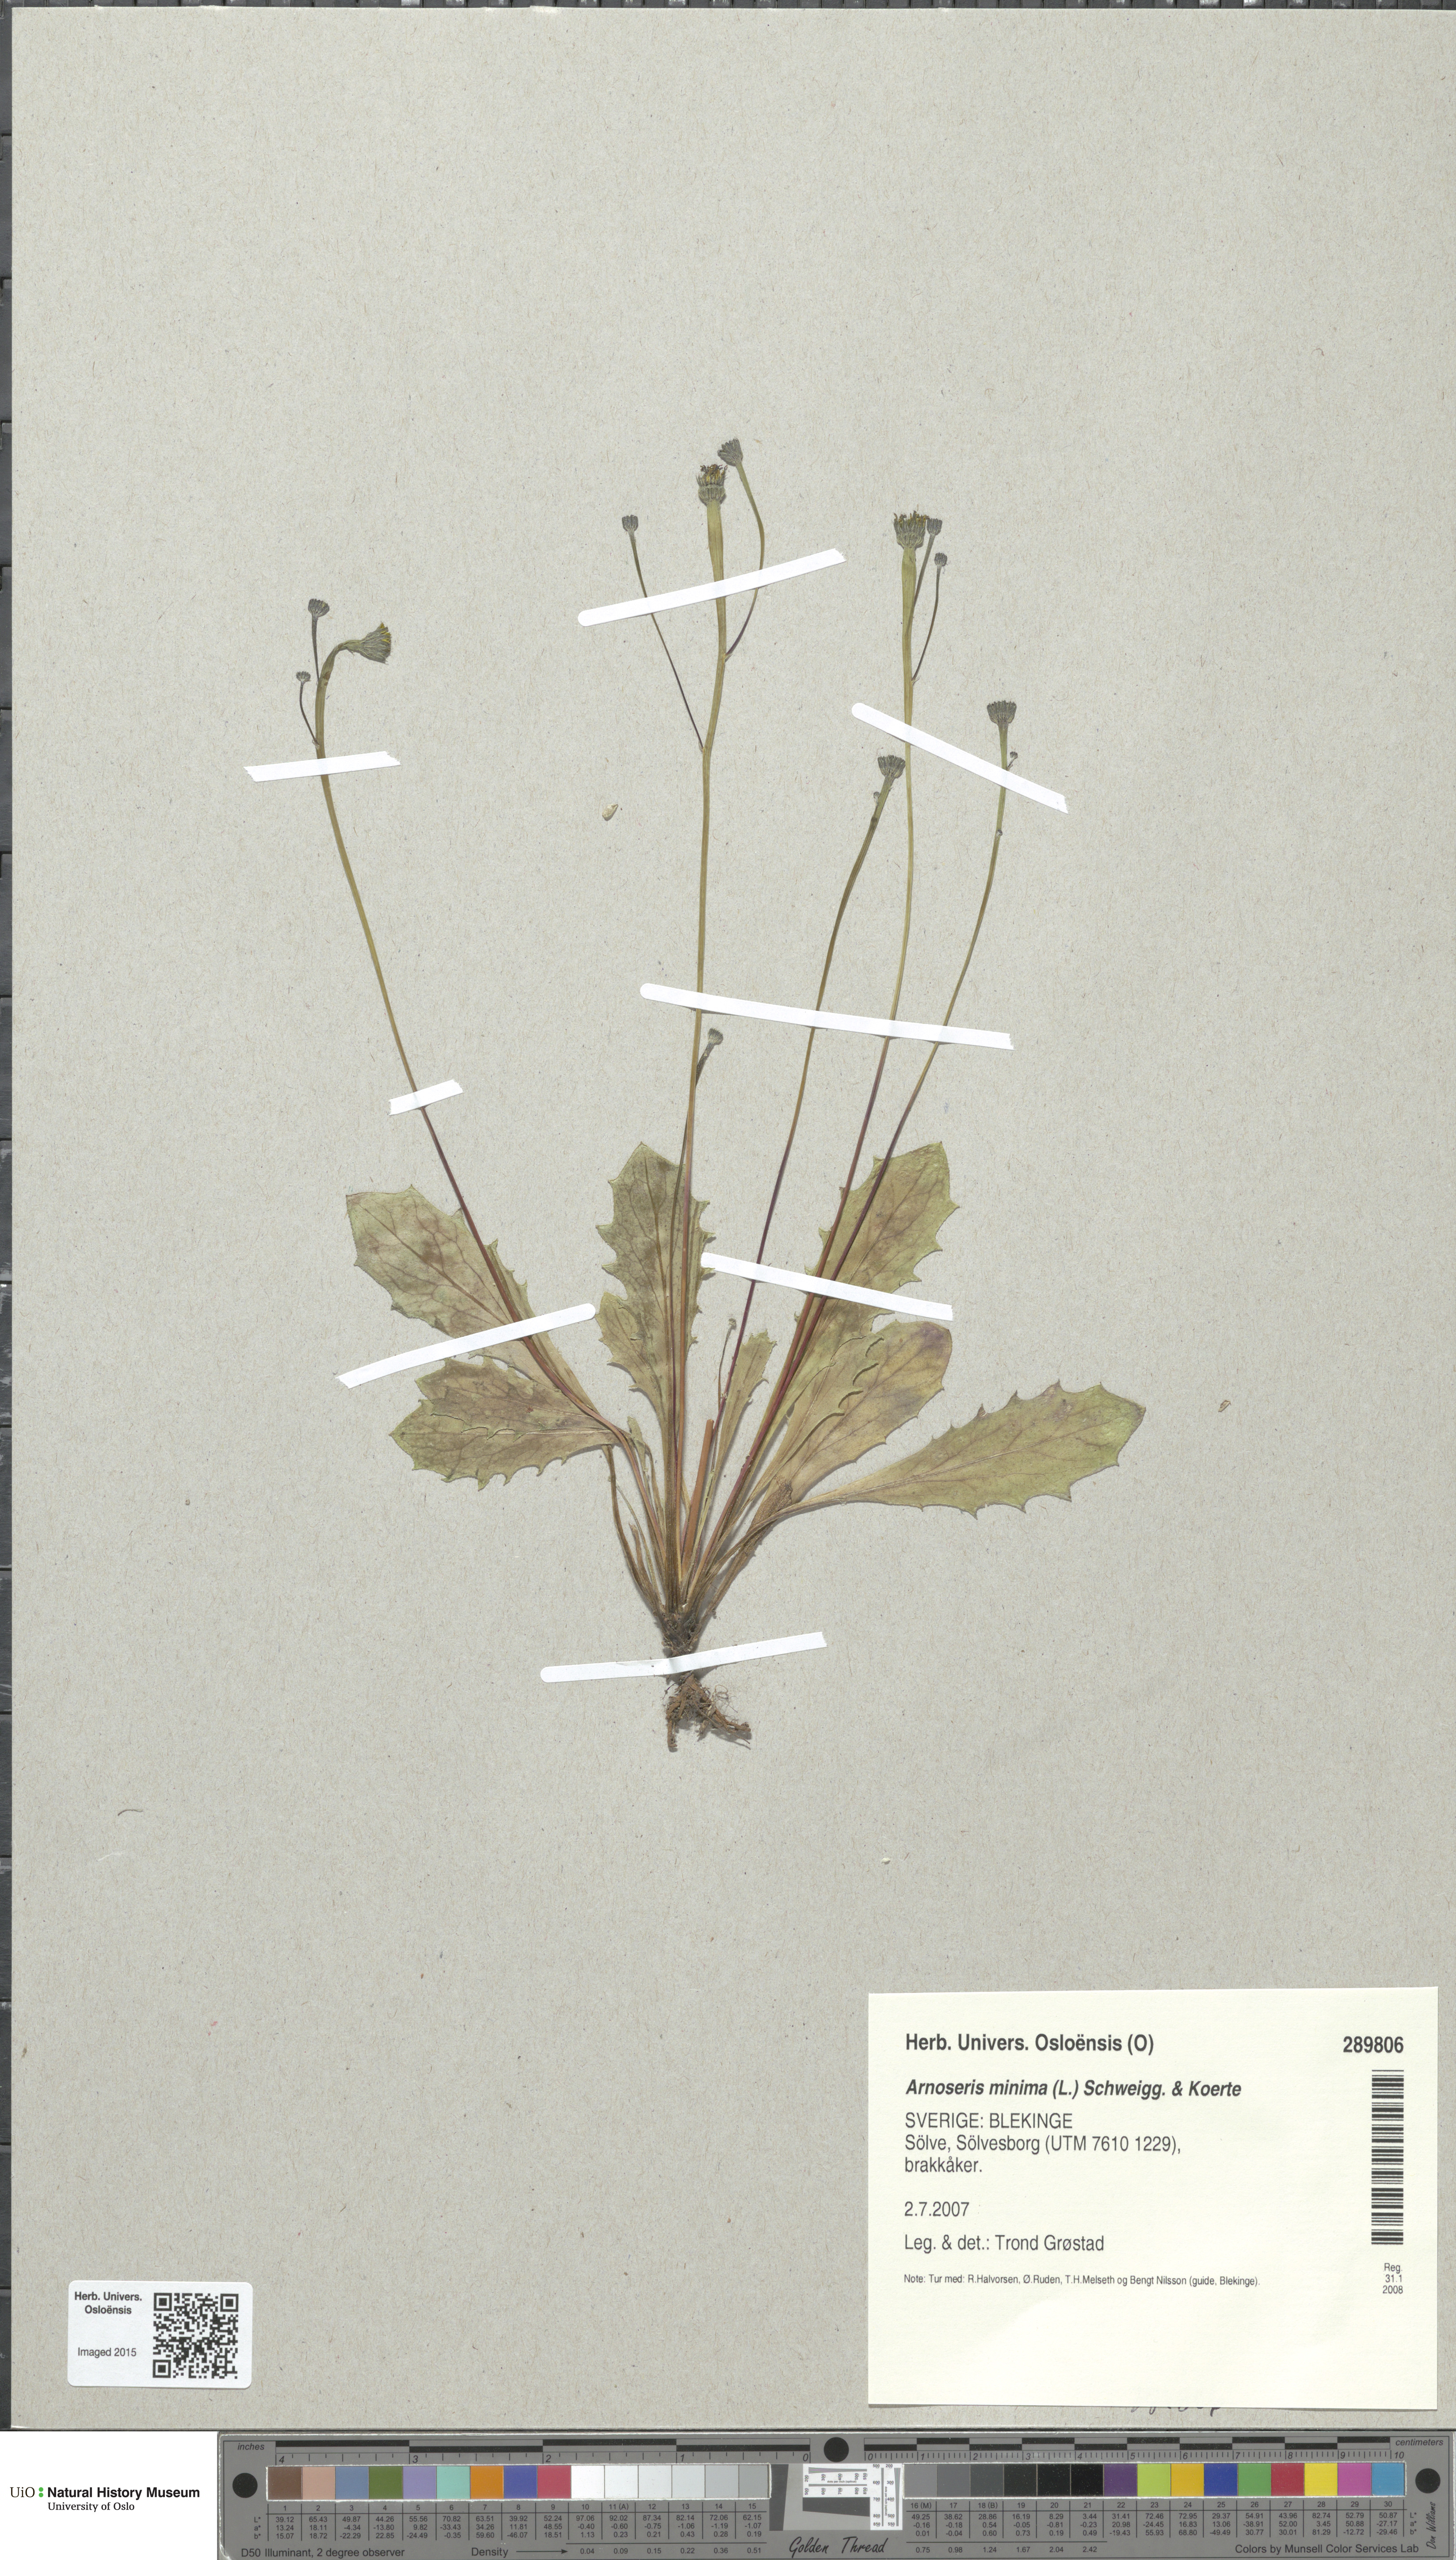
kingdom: Plantae
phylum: Tracheophyta
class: Magnoliopsida
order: Asterales
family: Asteraceae
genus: Arnoseris
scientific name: Arnoseris minima
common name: Lamb's succory
